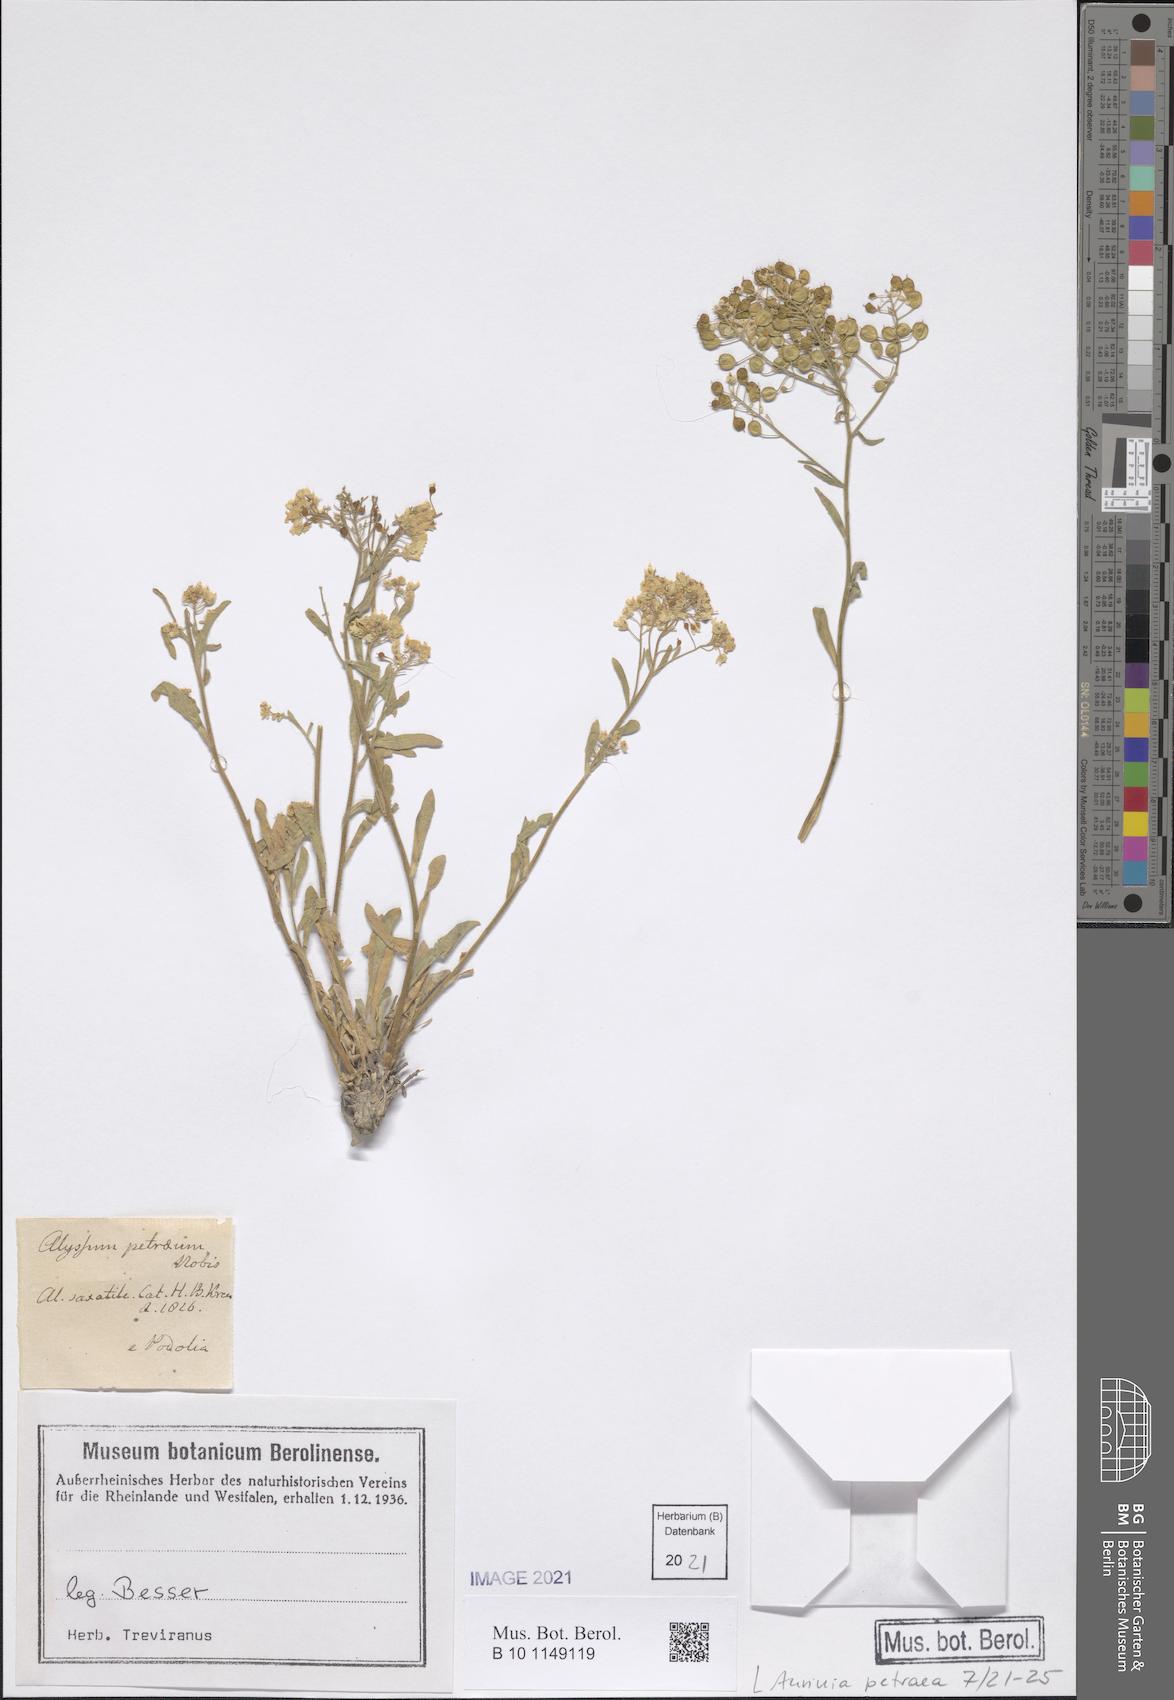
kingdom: Plantae
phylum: Tracheophyta
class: Magnoliopsida
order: Brassicales
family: Brassicaceae
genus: Aurinia
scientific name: Aurinia petraea
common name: Goldentuft
